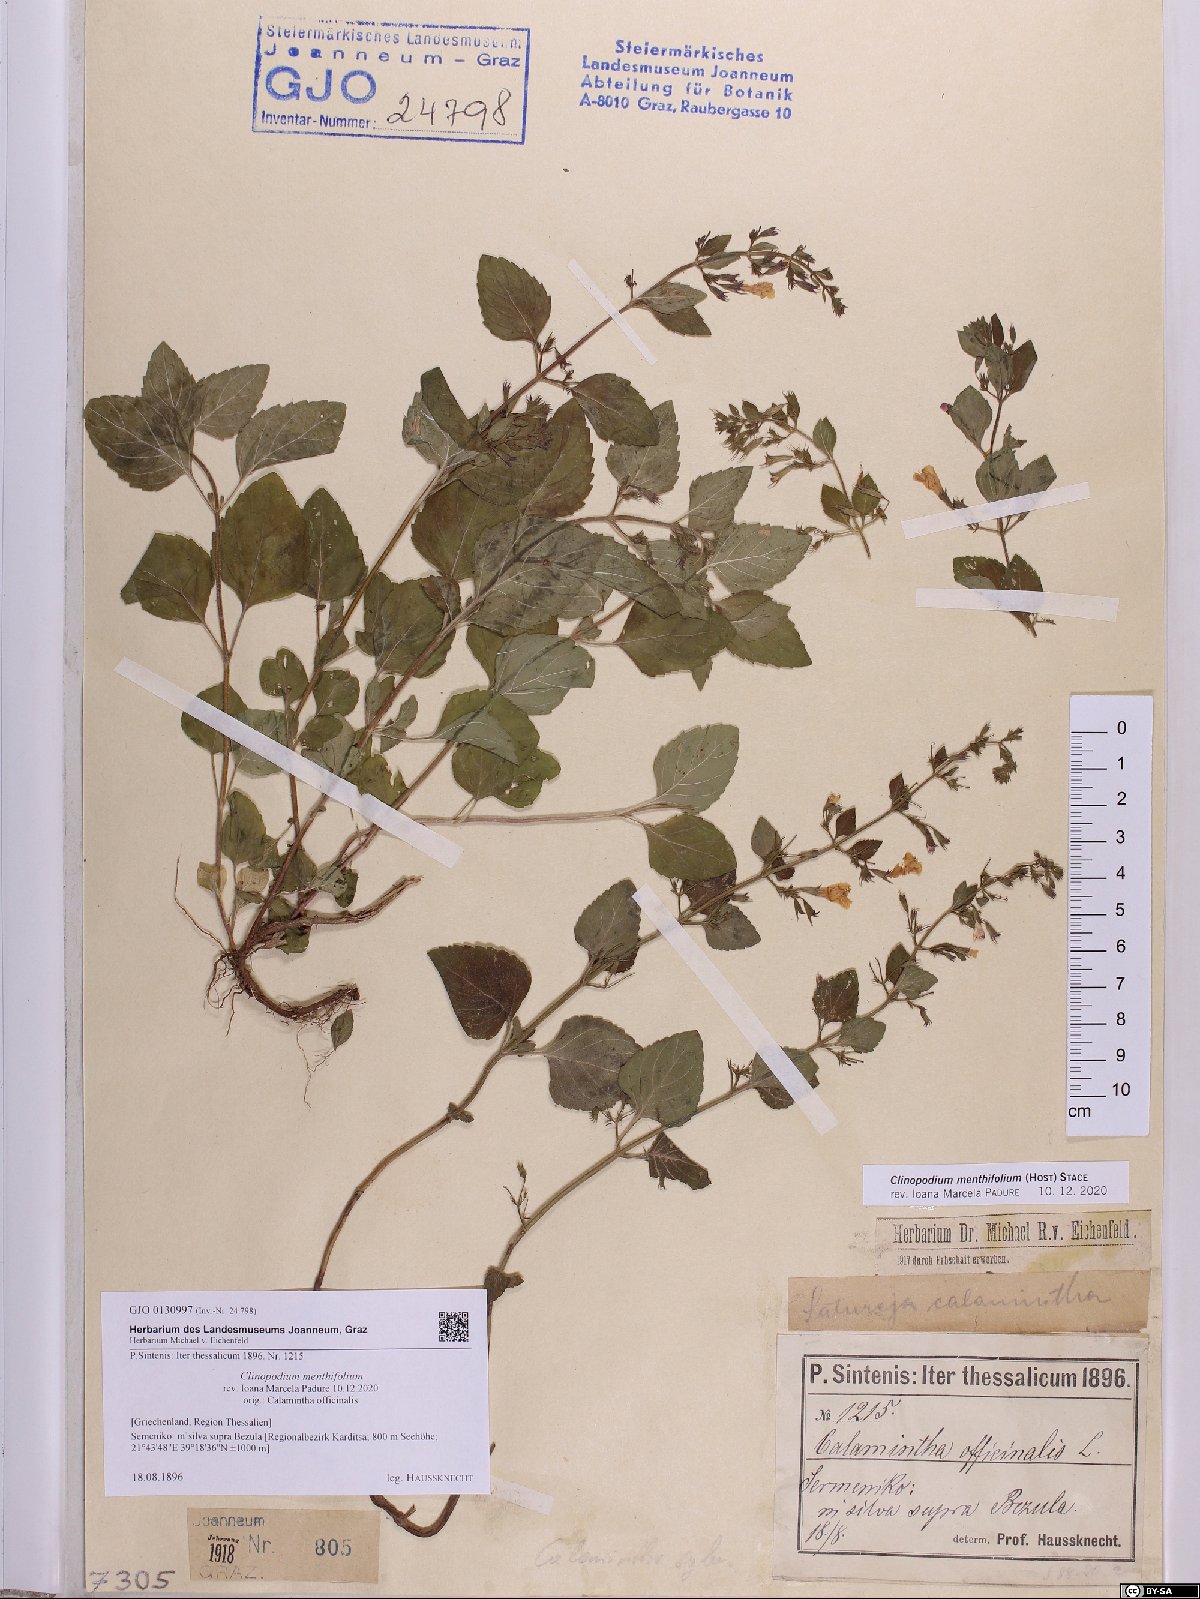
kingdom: Plantae
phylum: Tracheophyta
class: Magnoliopsida
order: Lamiales
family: Lamiaceae
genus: Clinopodium
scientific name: Clinopodium menthifolium
